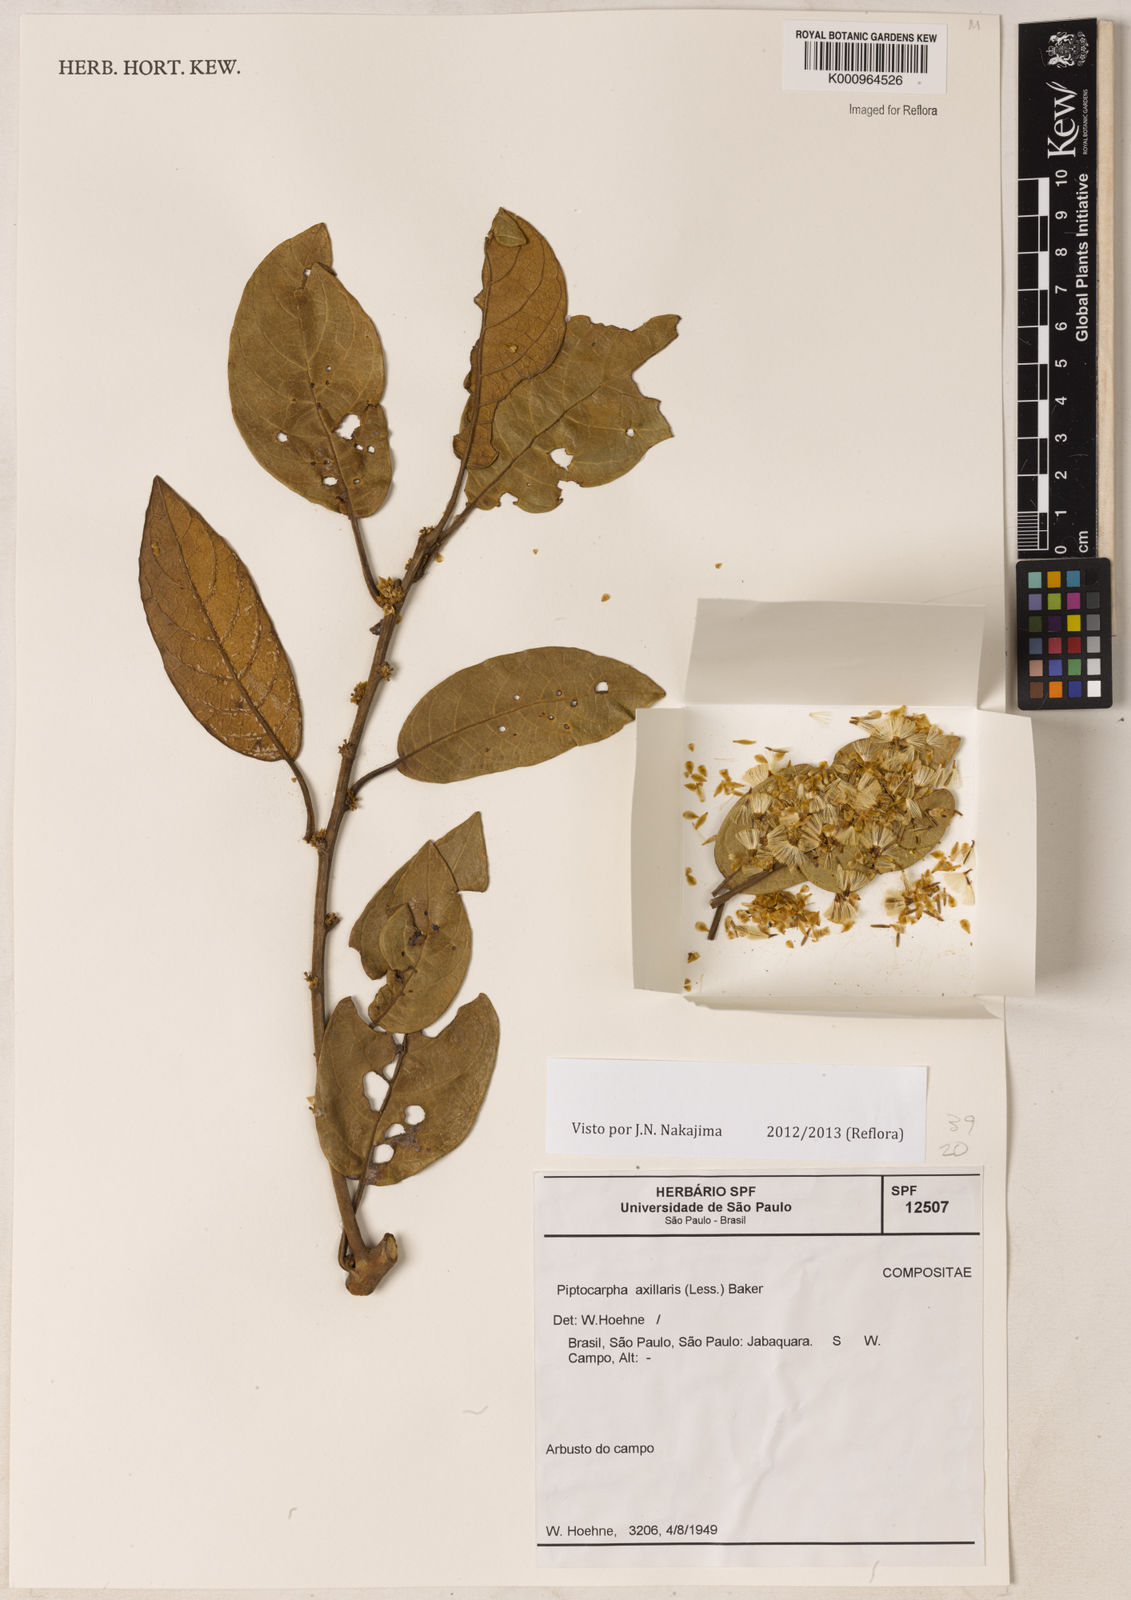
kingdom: Plantae
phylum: Tracheophyta
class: Magnoliopsida
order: Asterales
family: Asteraceae
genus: Piptocarpha
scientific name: Piptocarpha axillaris
